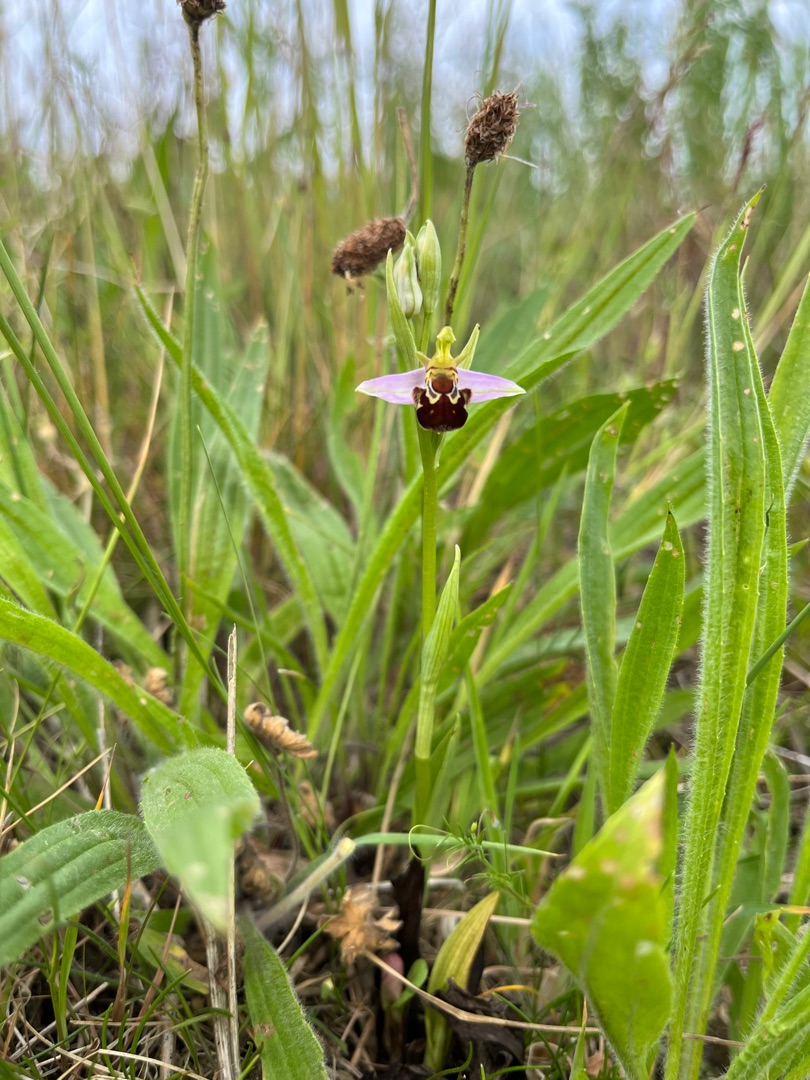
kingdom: Plantae
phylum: Tracheophyta
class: Liliopsida
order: Asparagales
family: Orchidaceae
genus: Ophrys
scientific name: Ophrys apifera
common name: Biblomst
